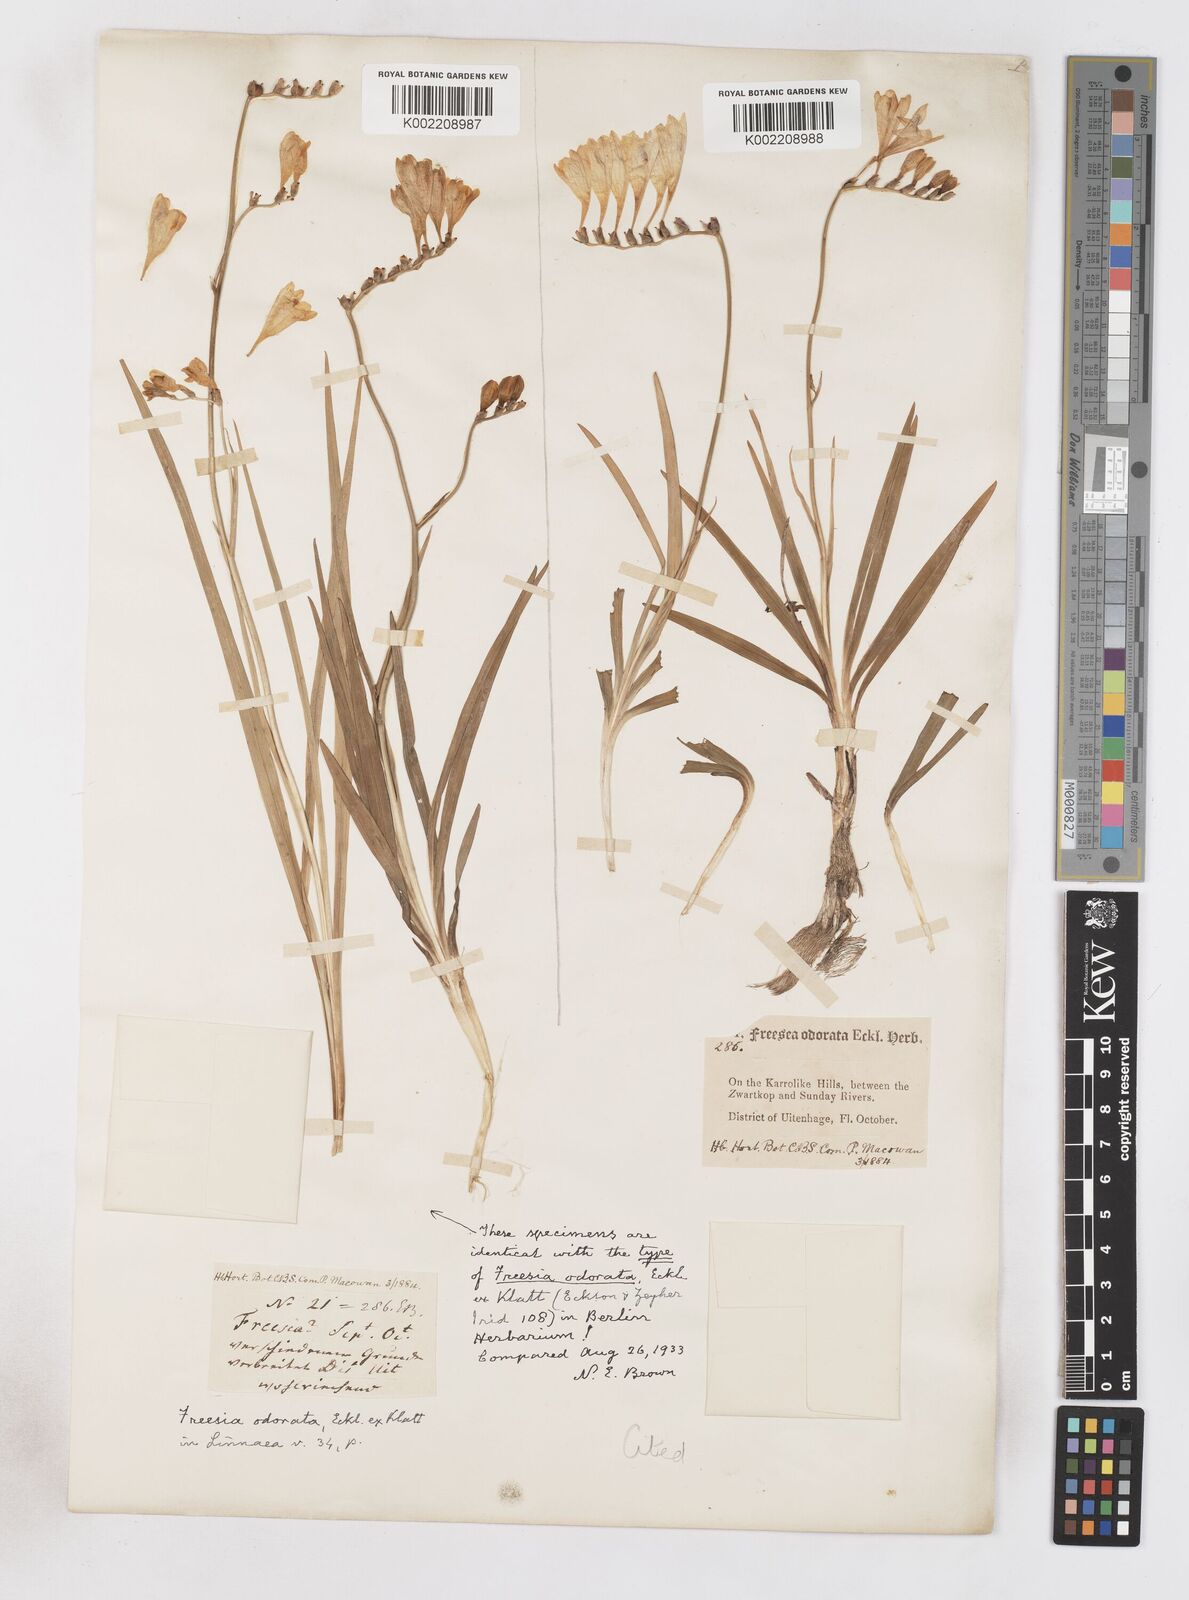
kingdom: Plantae
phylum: Tracheophyta
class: Liliopsida
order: Asparagales
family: Iridaceae
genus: Freesia
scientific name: Freesia corymbosa
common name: Common freesia
